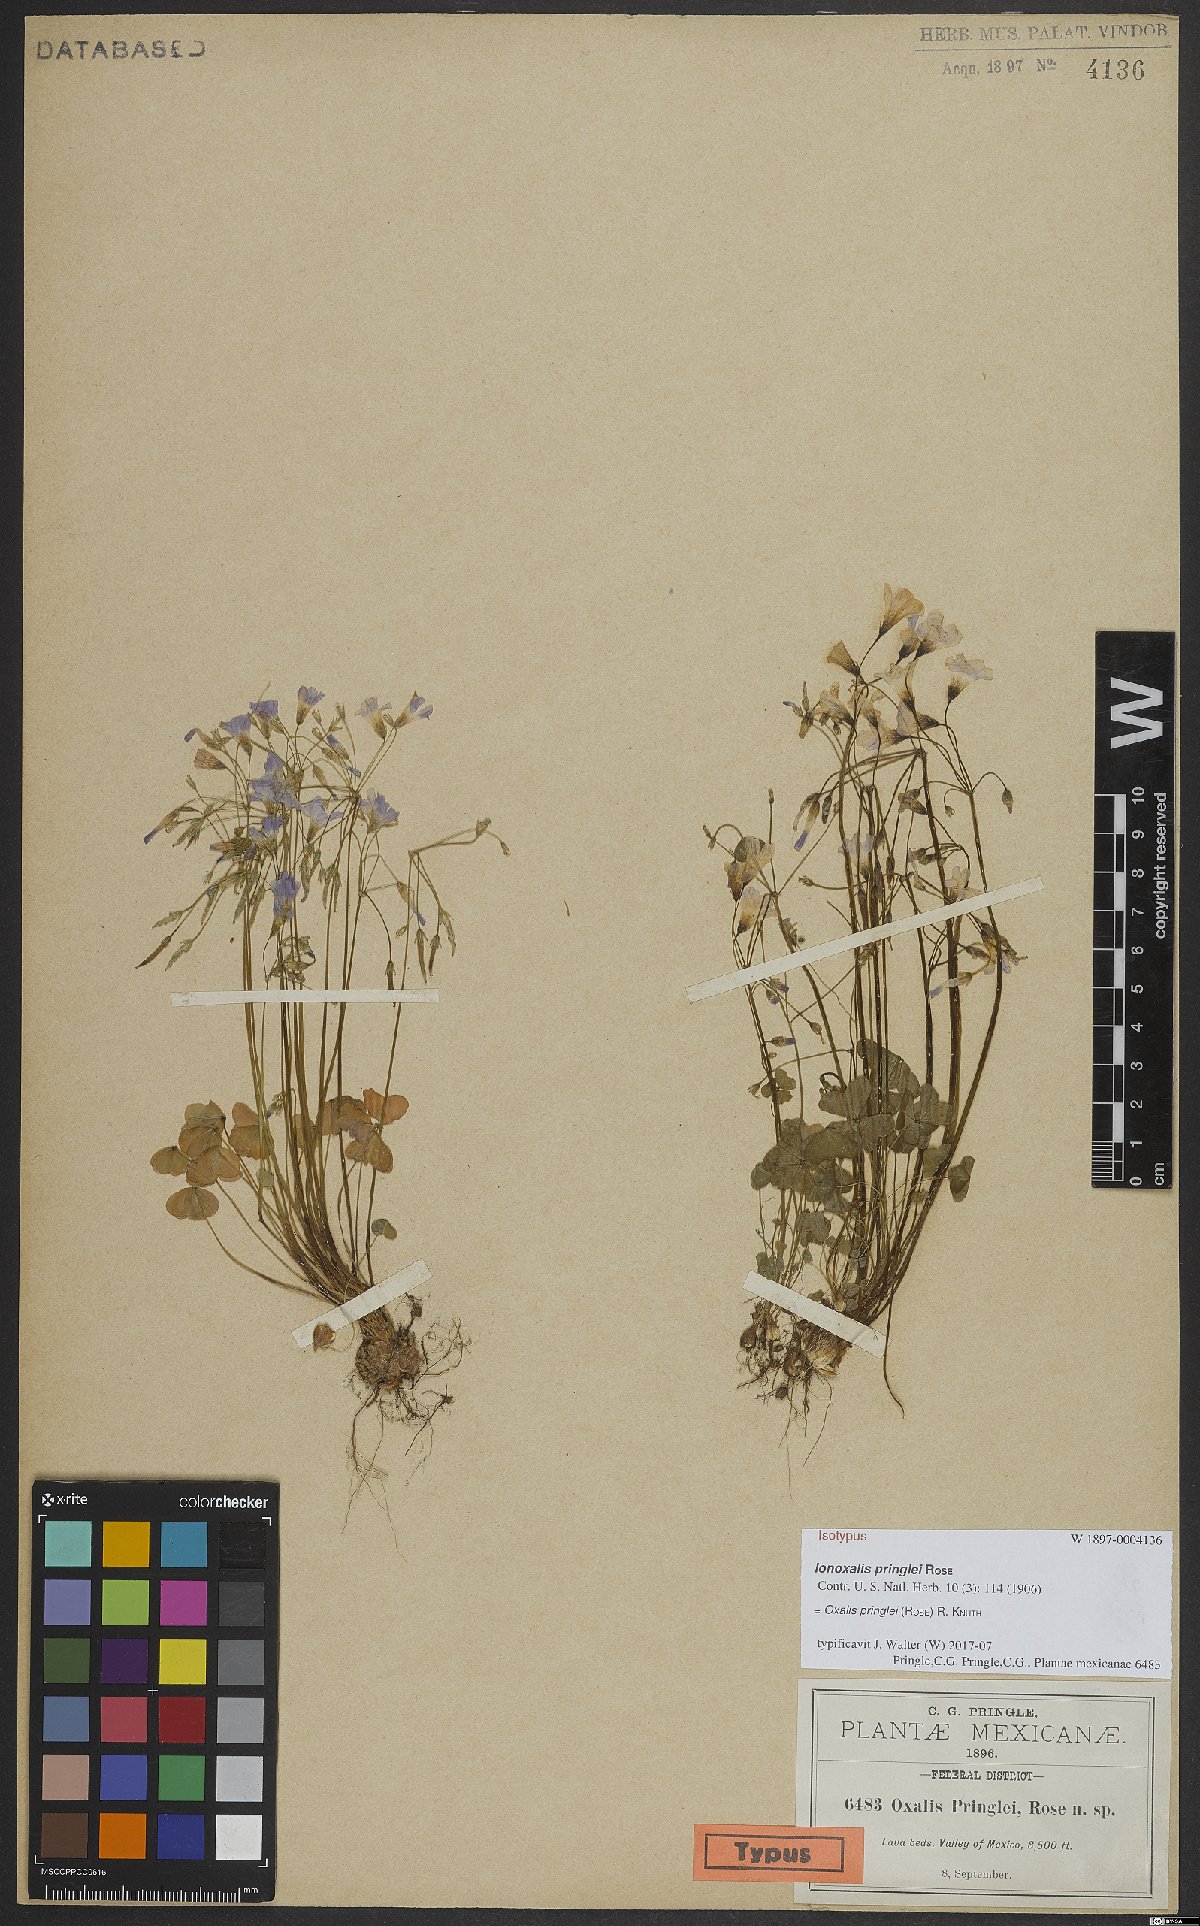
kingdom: Plantae
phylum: Tracheophyta
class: Magnoliopsida
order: Oxalidales
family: Oxalidaceae
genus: Oxalis
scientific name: Oxalis alpina
